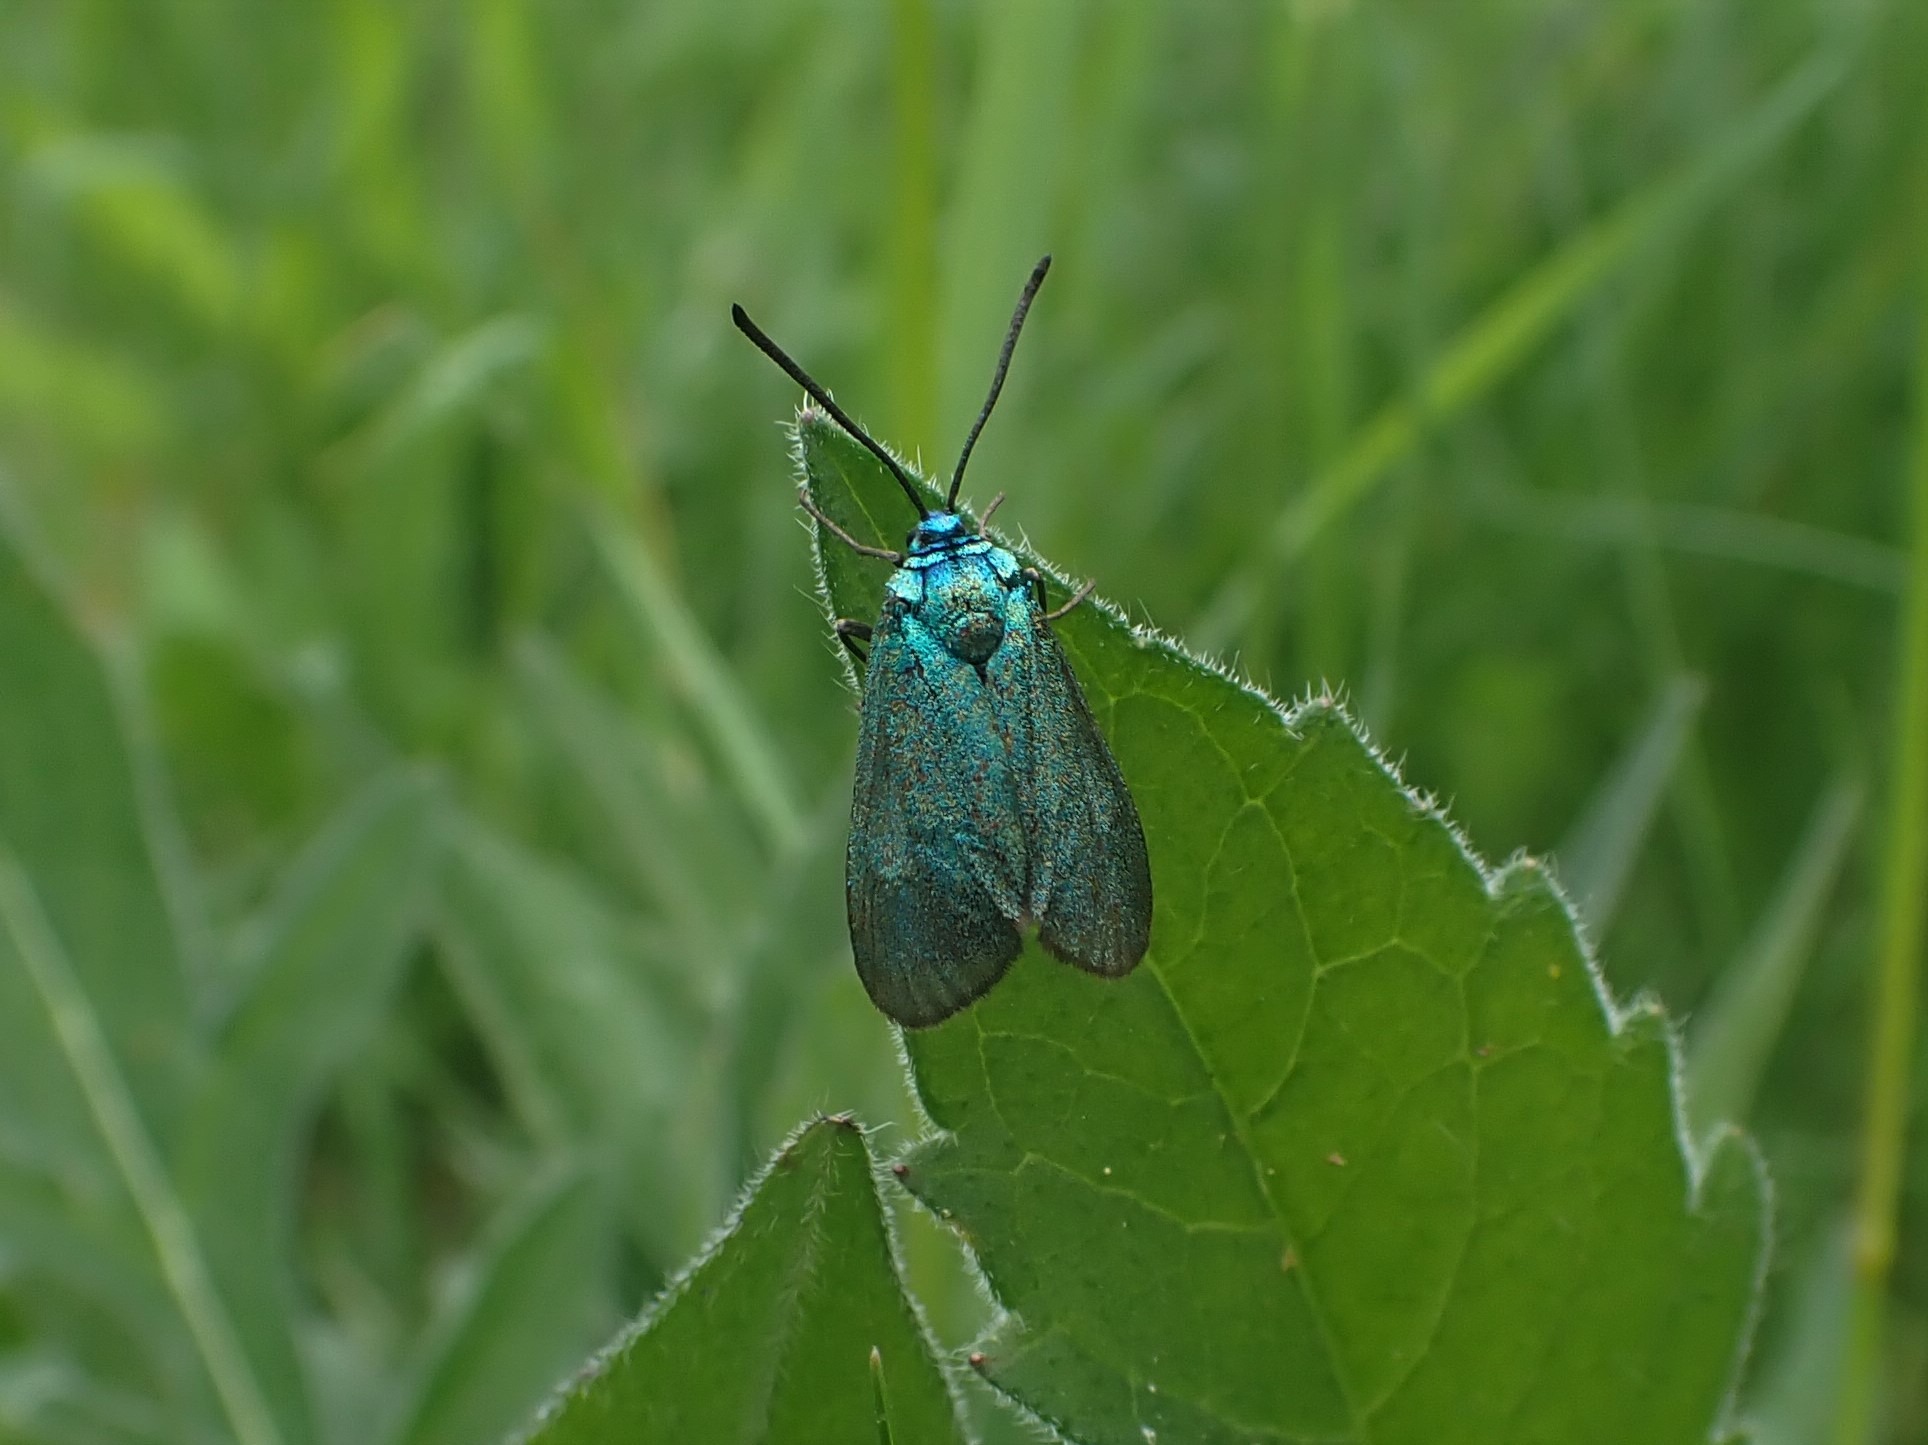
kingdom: Animalia
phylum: Arthropoda
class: Insecta
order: Lepidoptera
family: Zygaenidae
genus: Adscita
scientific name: Adscita statices
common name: Metalvinge
